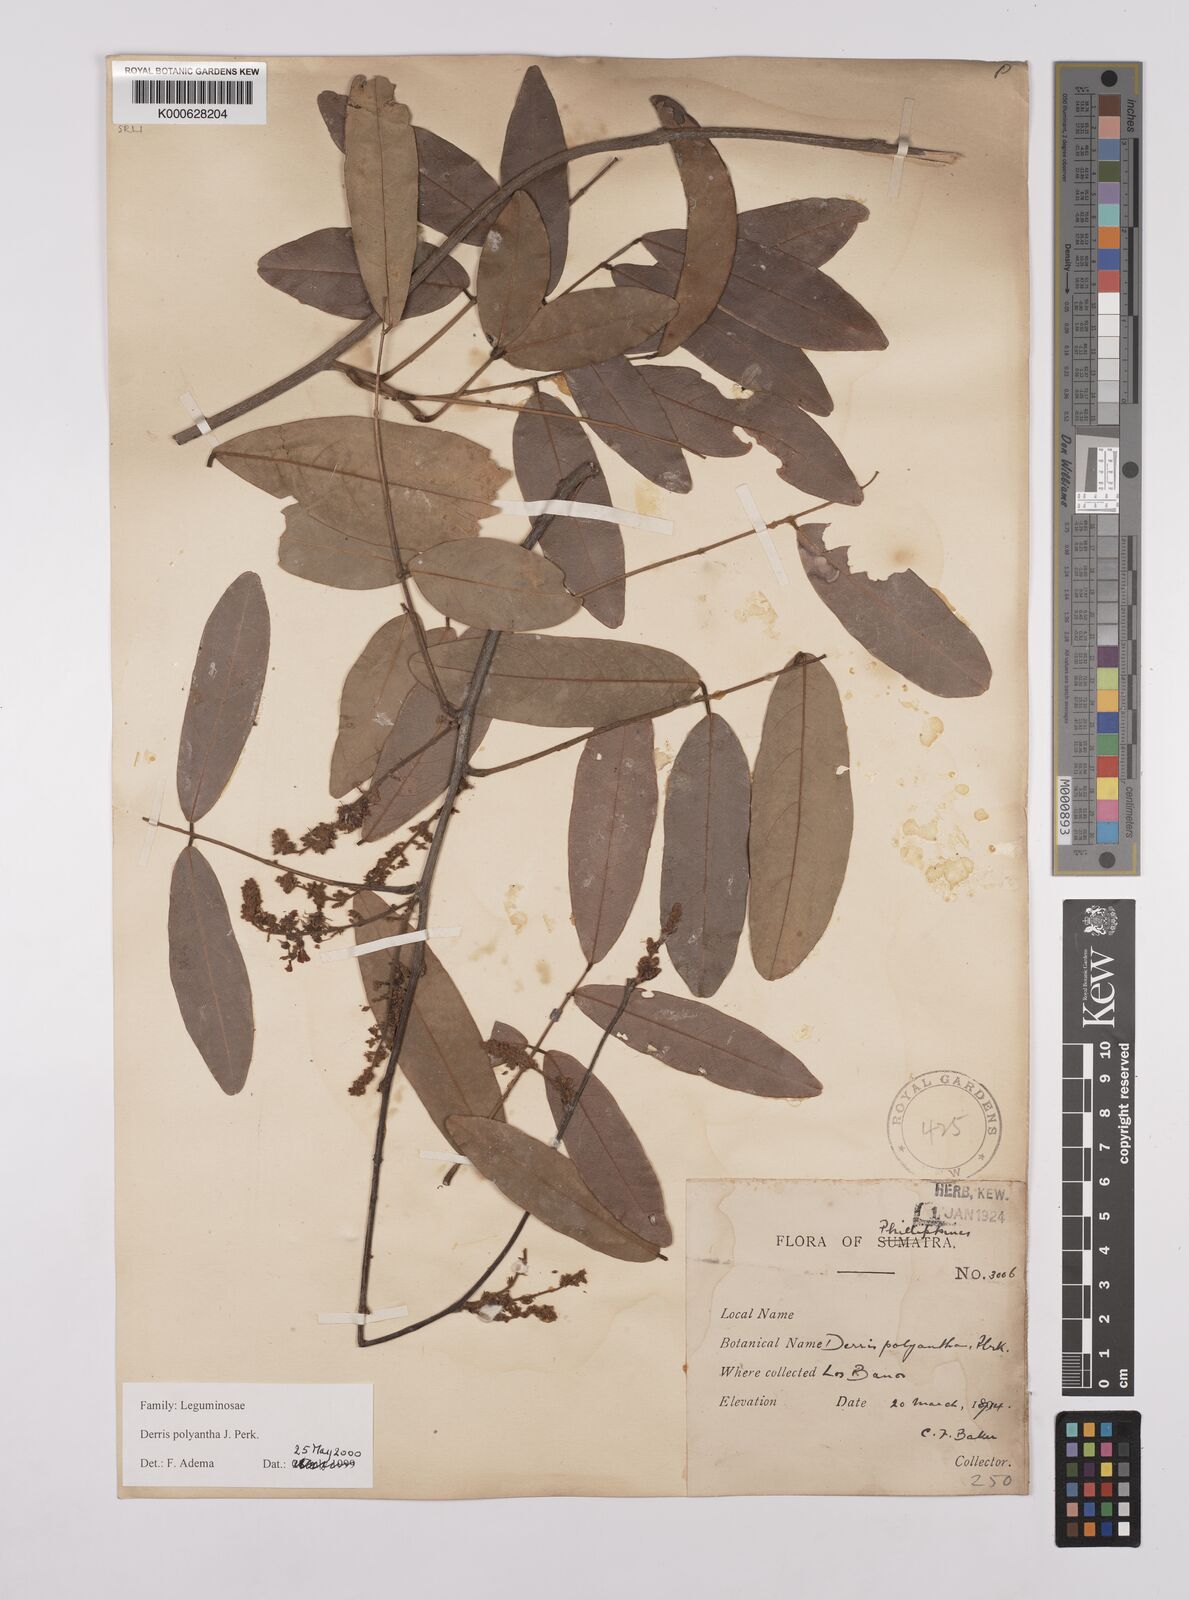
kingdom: Plantae
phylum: Tracheophyta
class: Magnoliopsida
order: Fabales
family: Fabaceae
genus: Derris
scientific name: Derris polyantha
